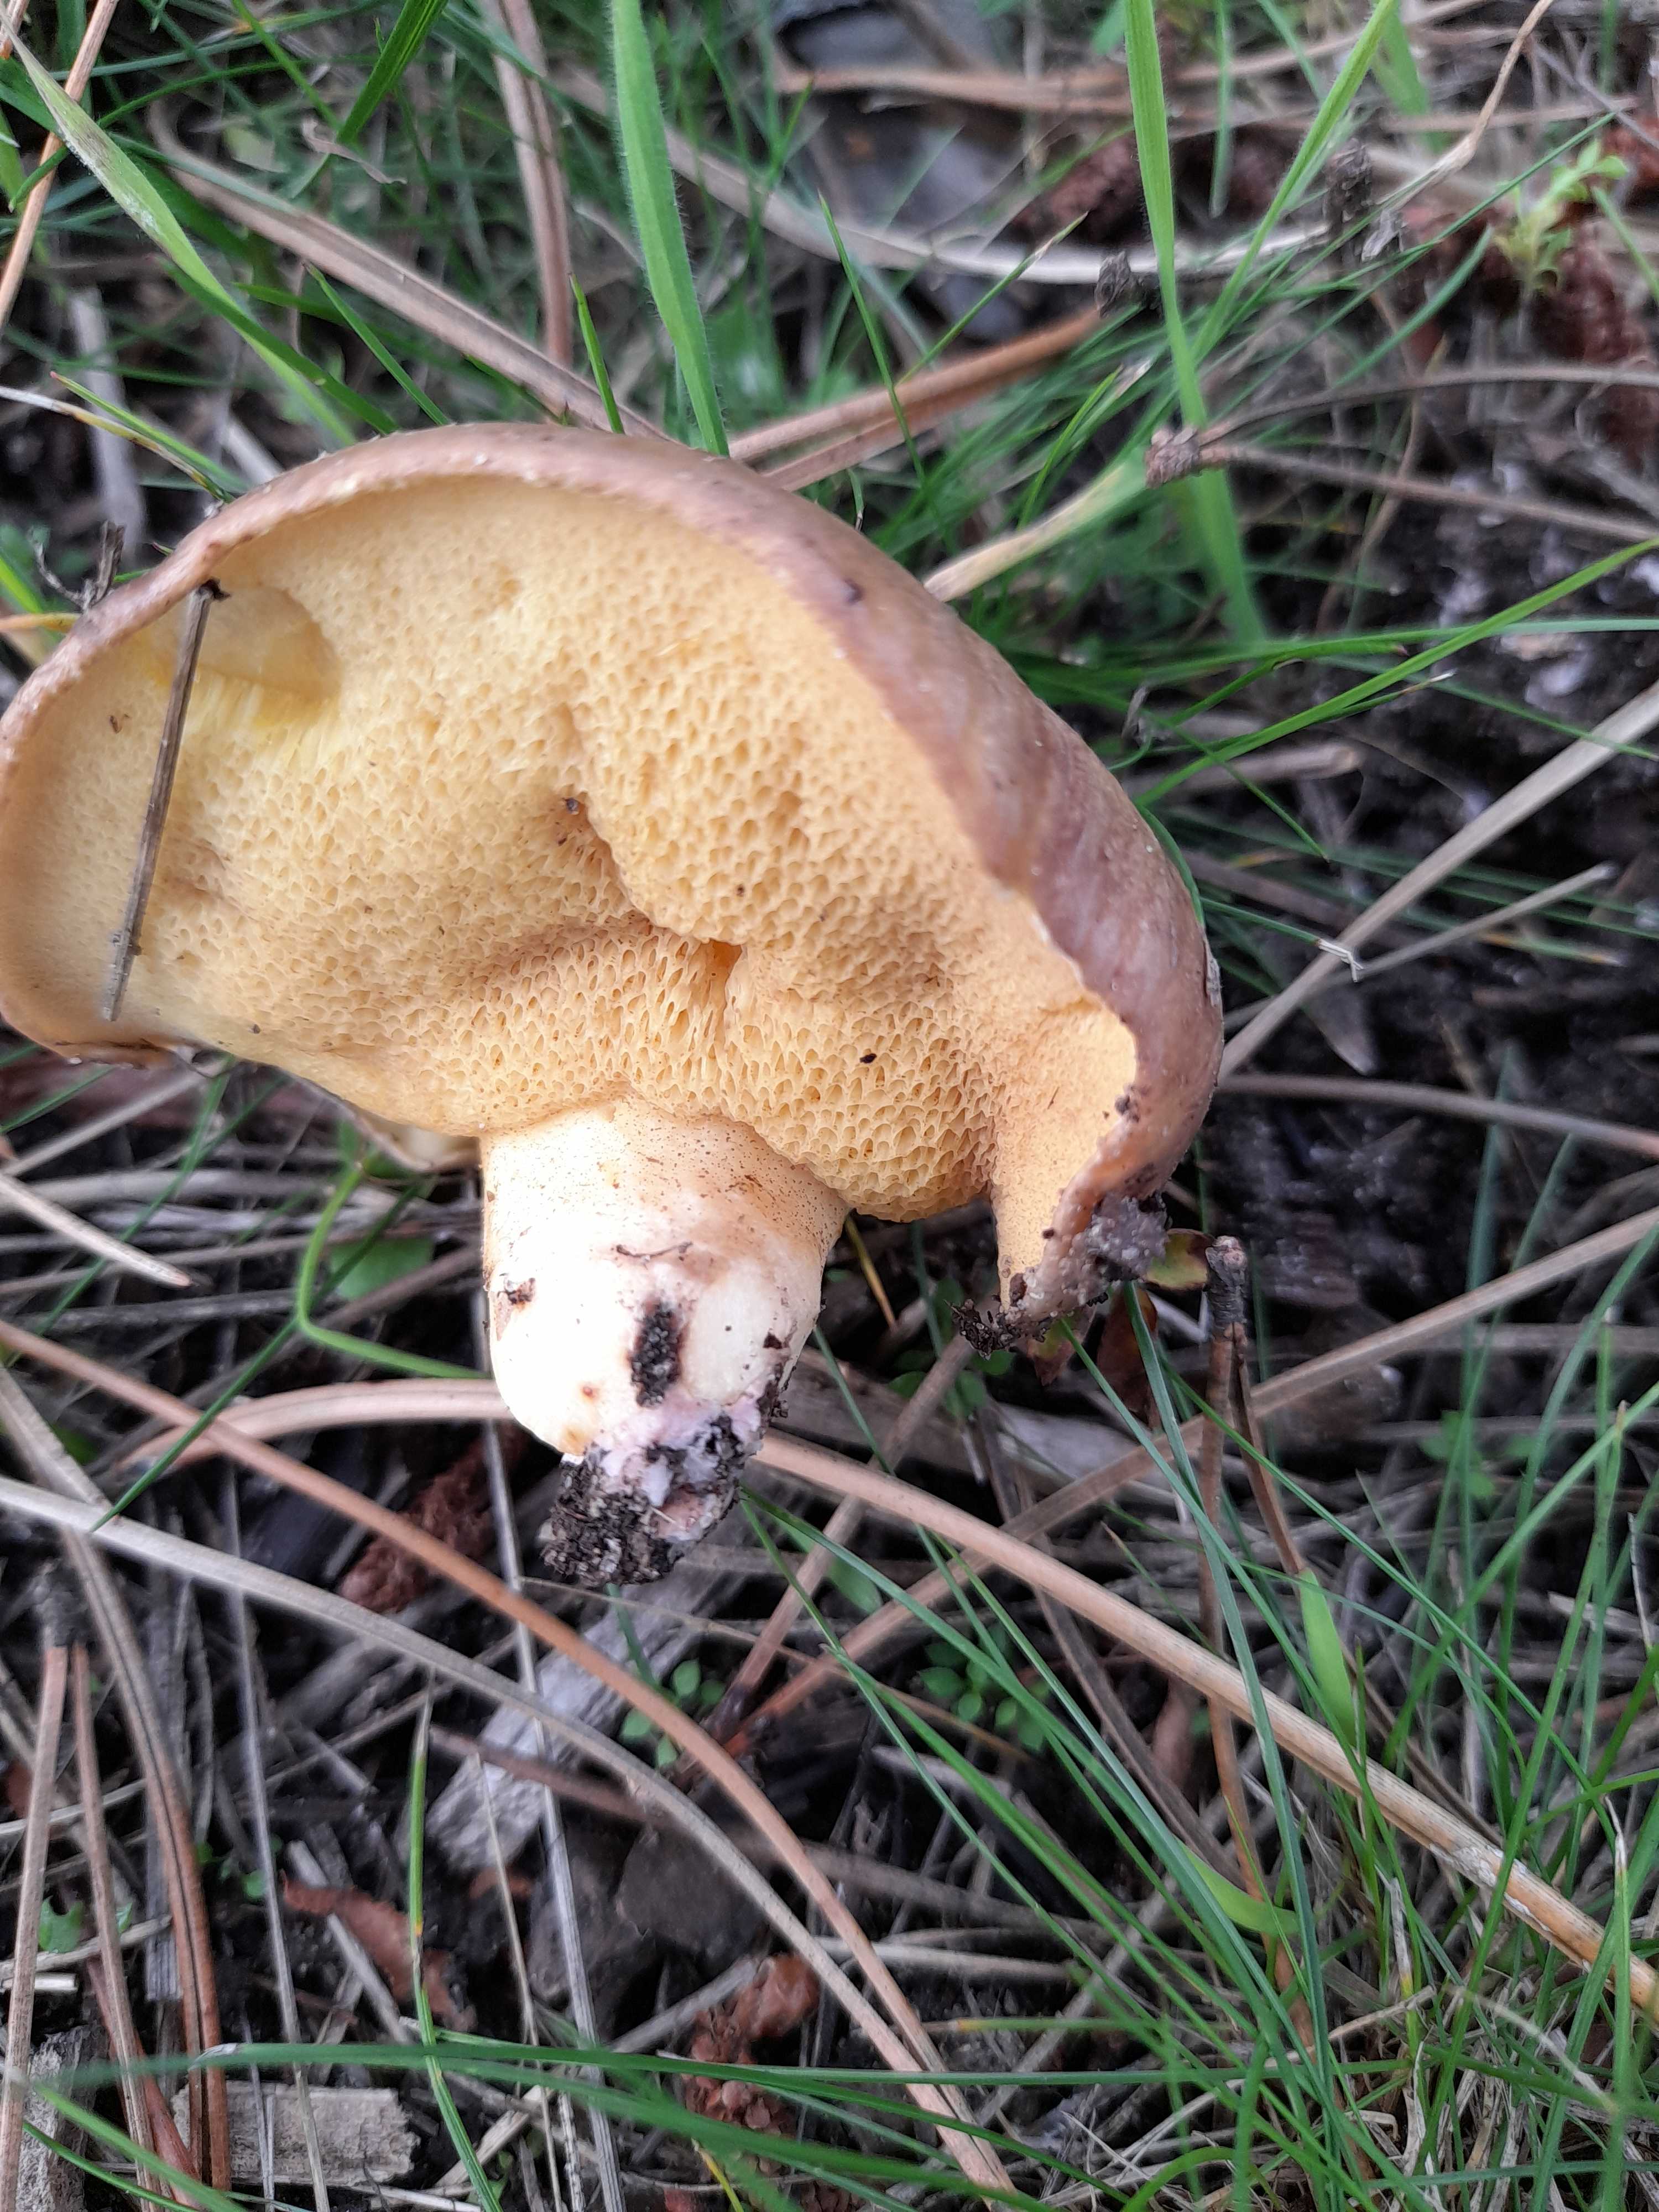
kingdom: Fungi
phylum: Basidiomycota
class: Agaricomycetes
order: Boletales
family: Suillaceae
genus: Suillus
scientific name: Suillus collinitus
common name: rosafodet slimrørhat
